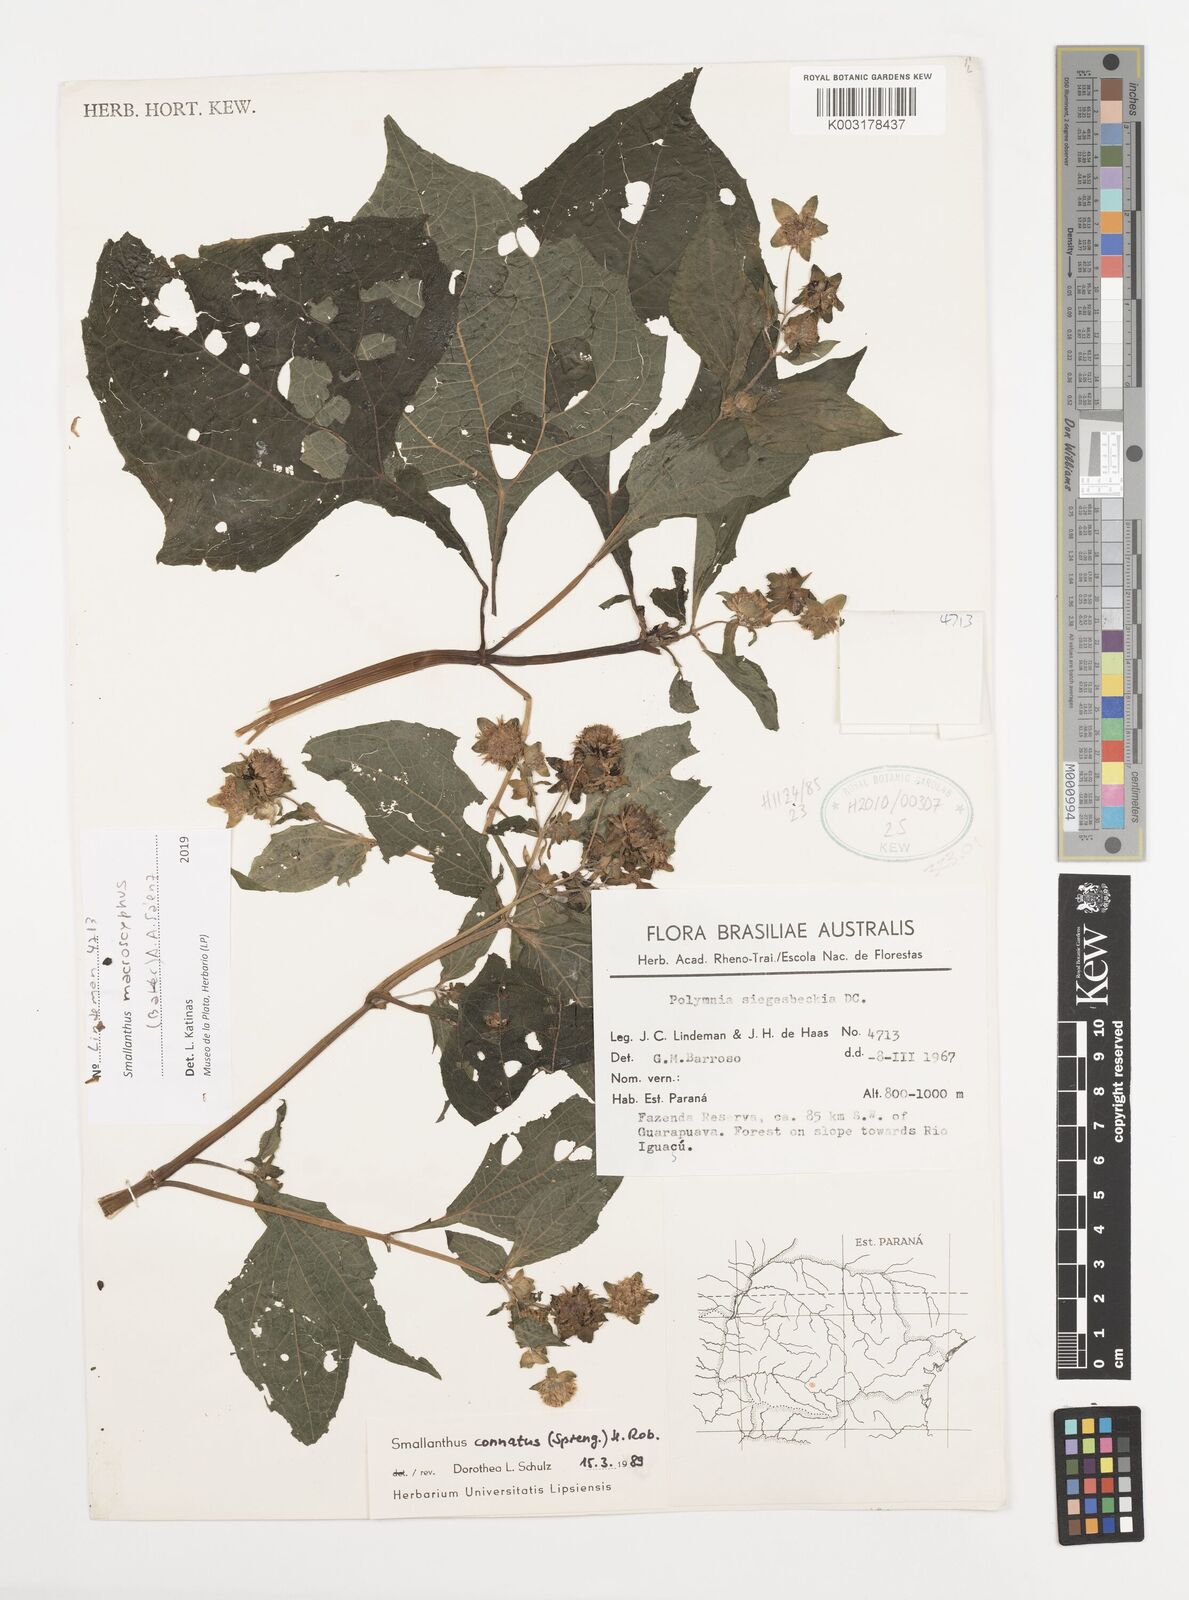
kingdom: Plantae
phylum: Tracheophyta
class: Magnoliopsida
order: Asterales
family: Asteraceae
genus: Smallanthus
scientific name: Smallanthus connatus
